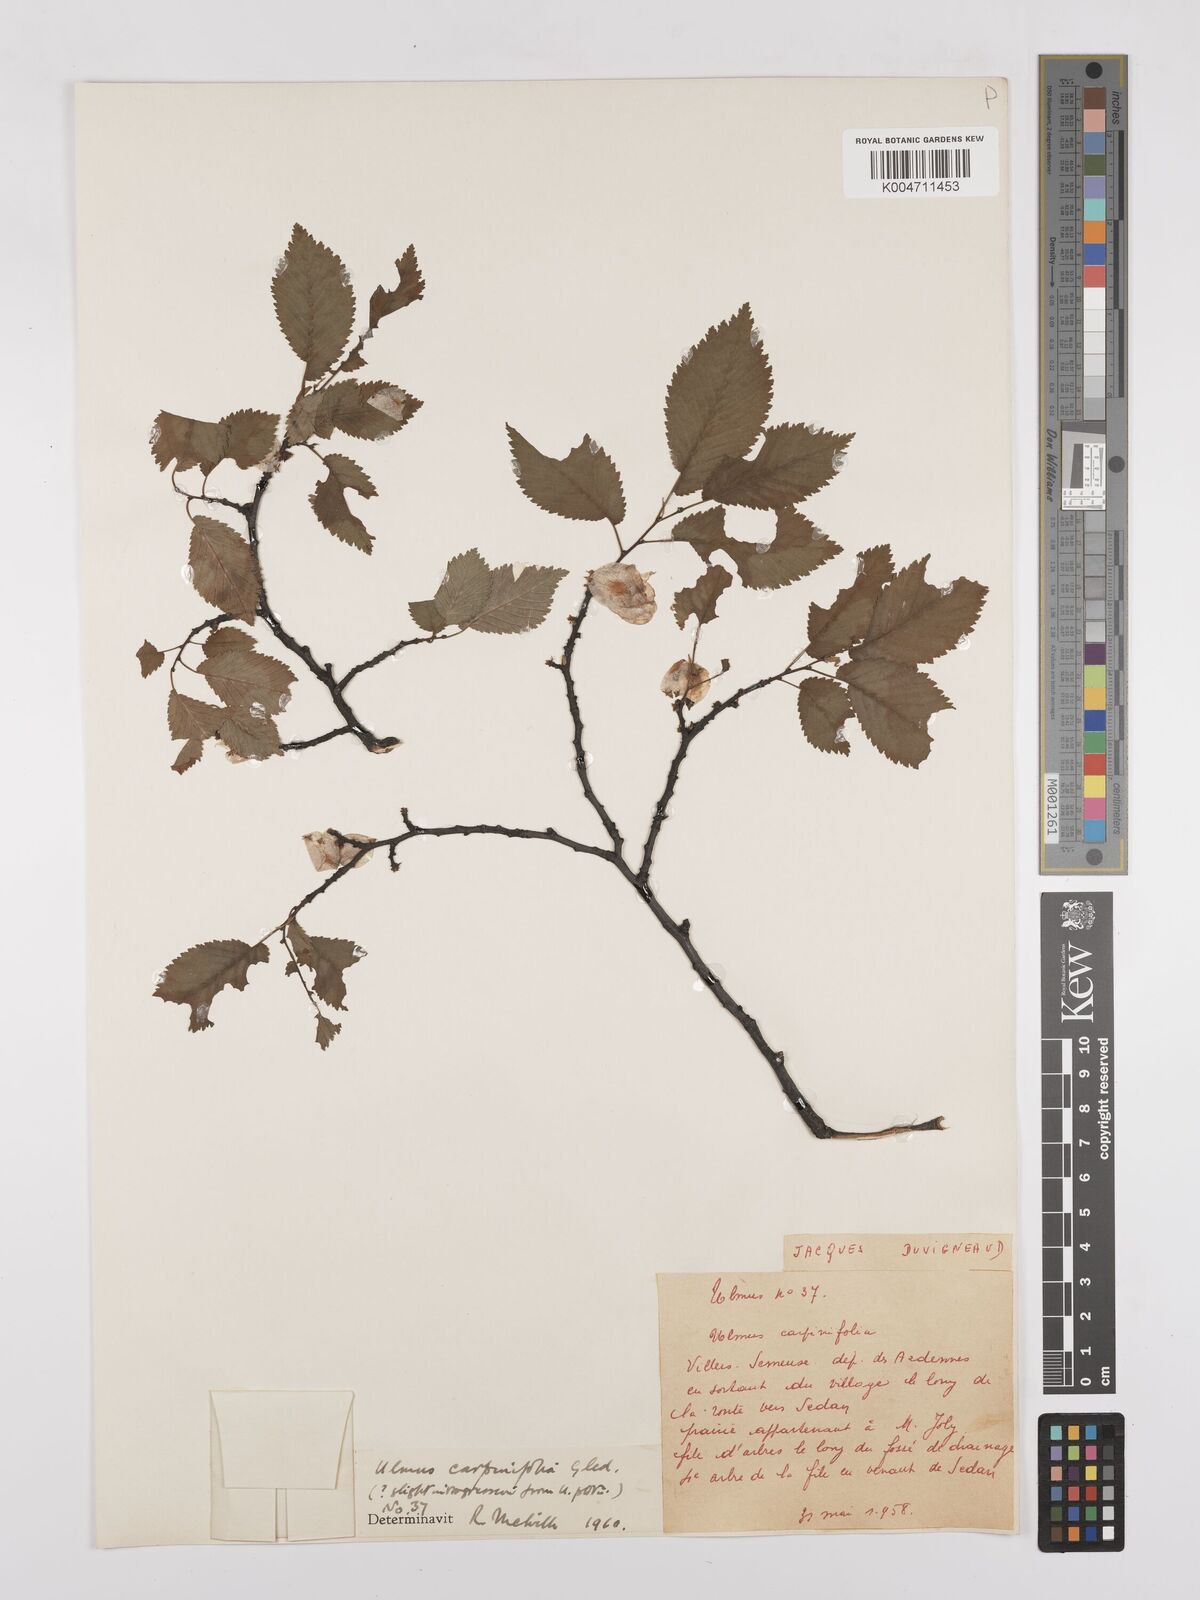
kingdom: Plantae
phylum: Tracheophyta
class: Magnoliopsida
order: Rosales
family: Ulmaceae
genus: Ulmus
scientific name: Ulmus minor
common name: Small-leaved elm
